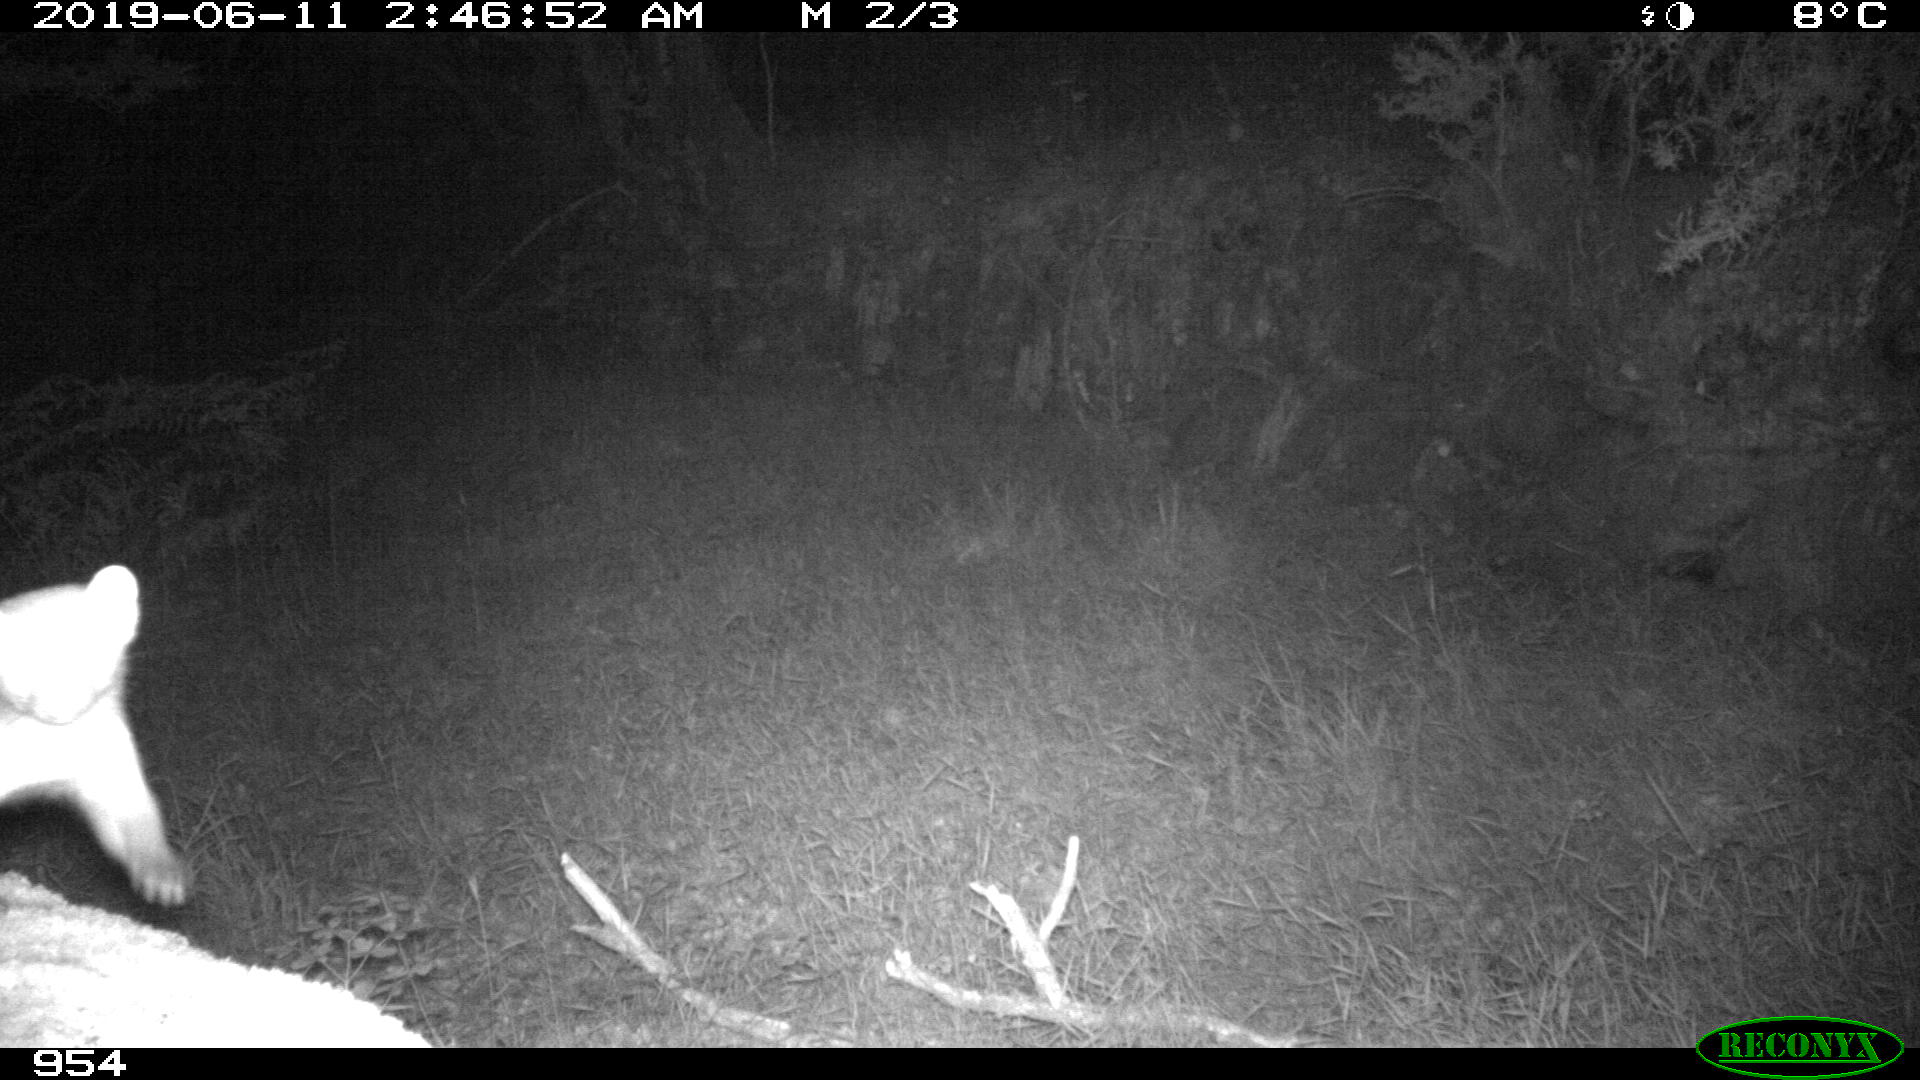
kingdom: Animalia
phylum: Chordata
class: Mammalia
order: Carnivora
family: Mustelidae
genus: Martes
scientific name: Martes foina
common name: Beech marten
